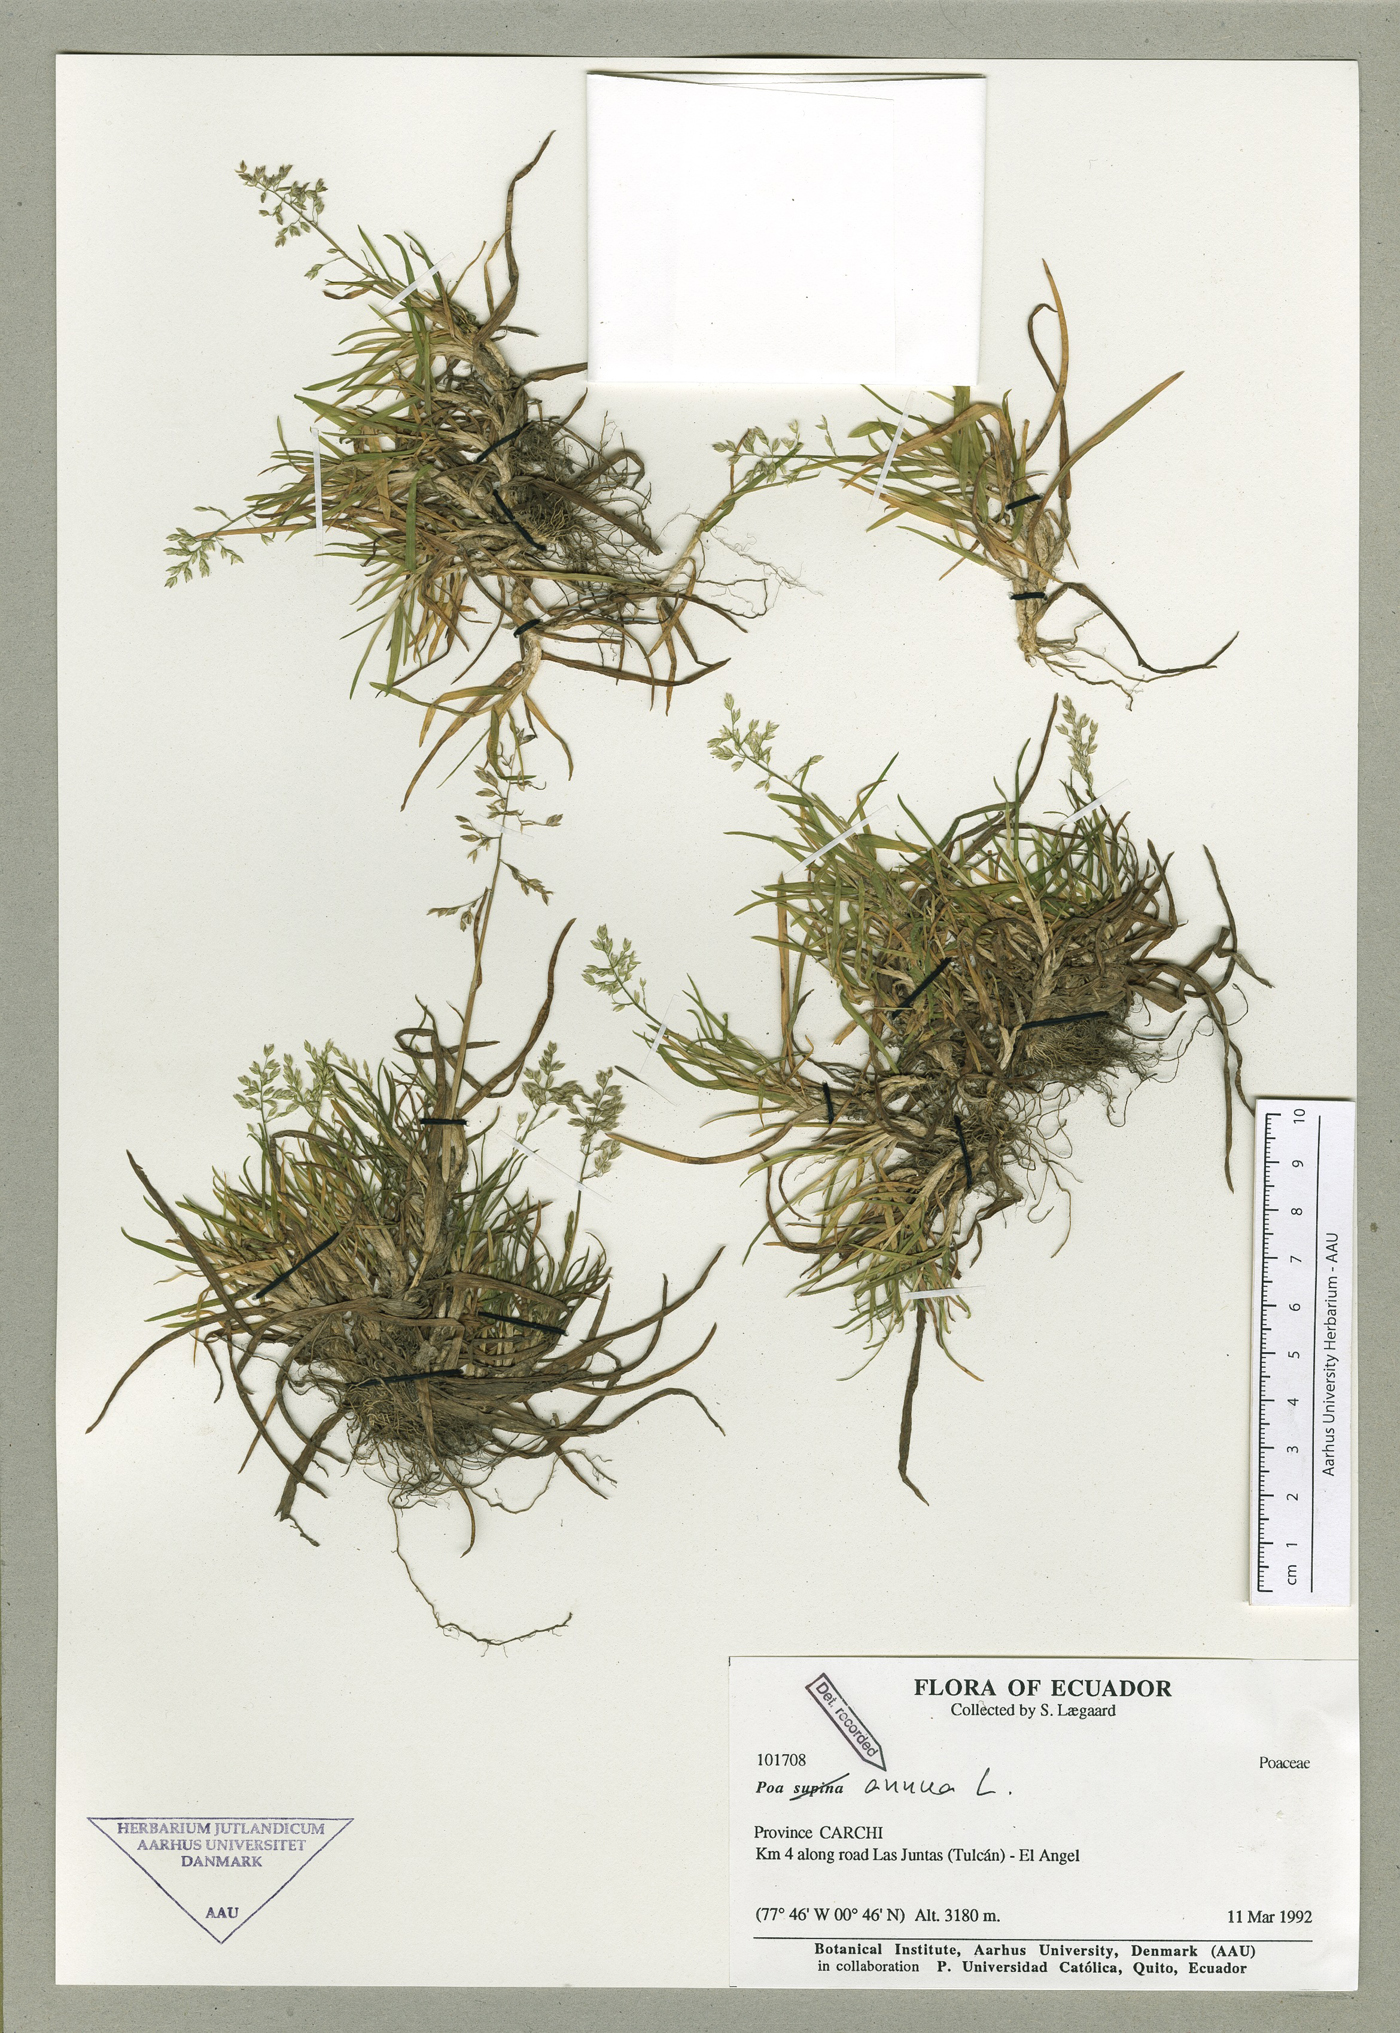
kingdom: Plantae
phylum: Tracheophyta
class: Liliopsida
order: Poales
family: Poaceae
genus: Poa
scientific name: Poa annua
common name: Annual bluegrass
